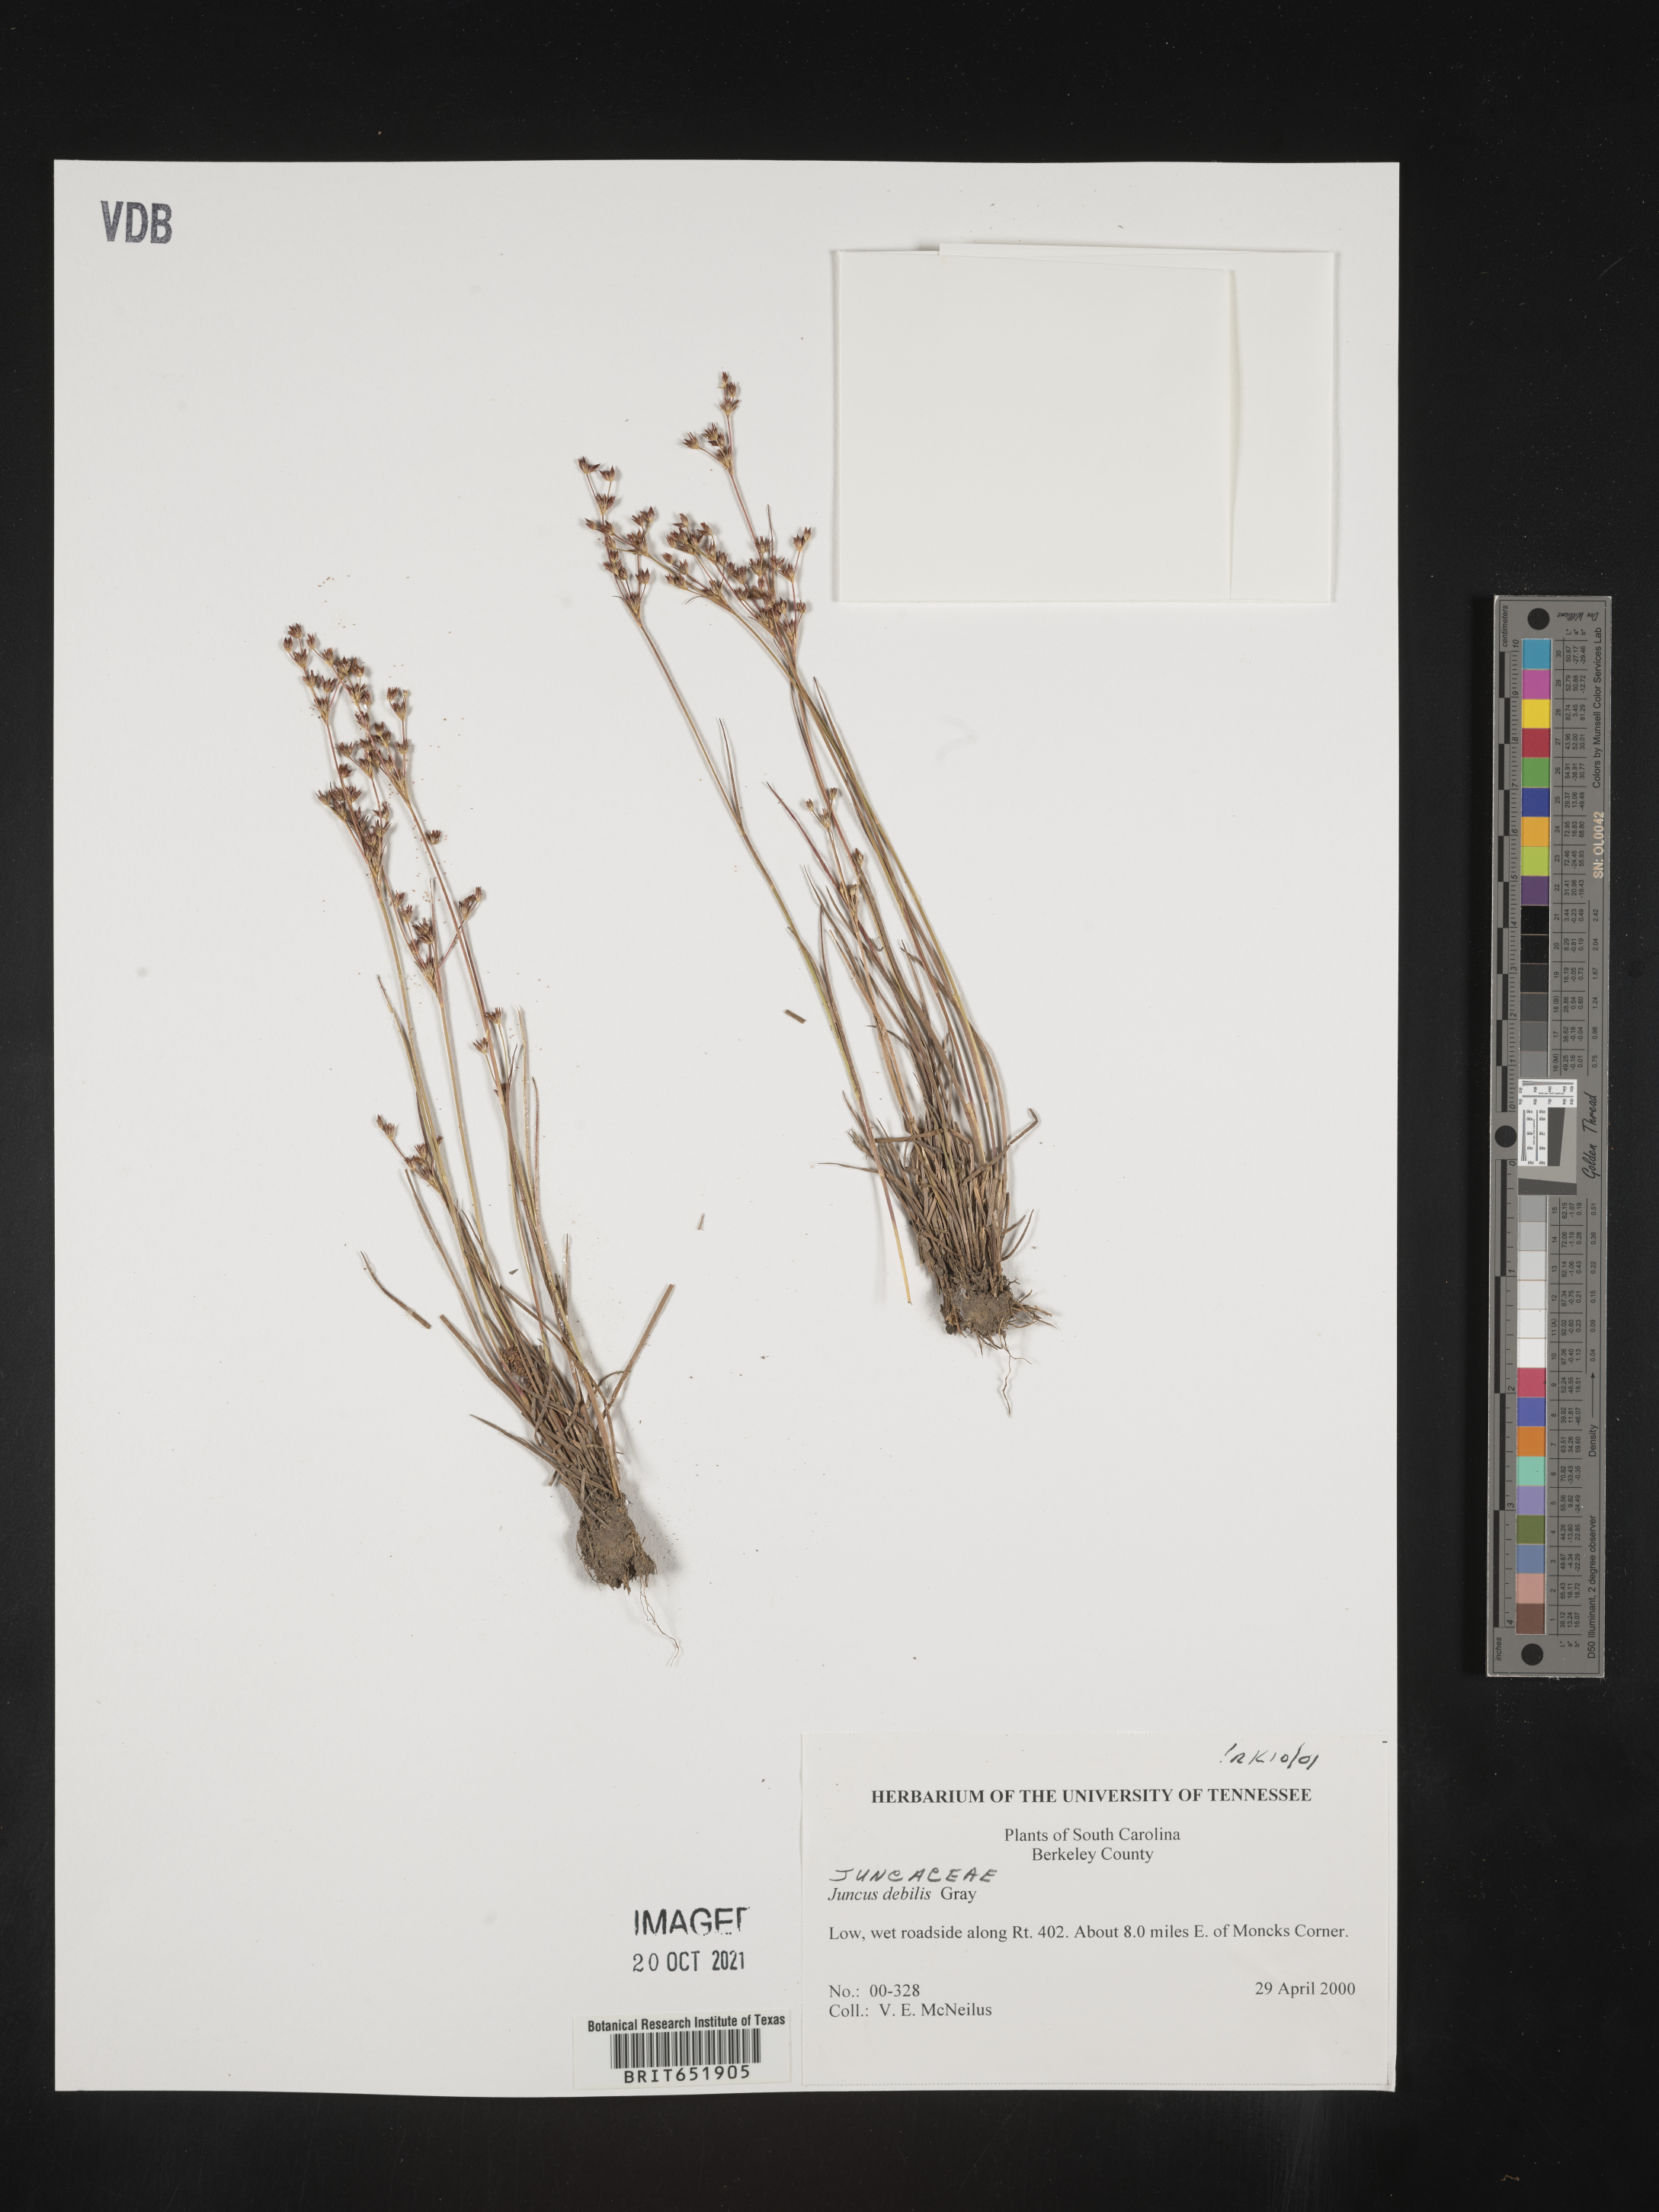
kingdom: Plantae
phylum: Tracheophyta
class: Liliopsida
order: Poales
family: Juncaceae
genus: Juncus
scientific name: Juncus debilis
